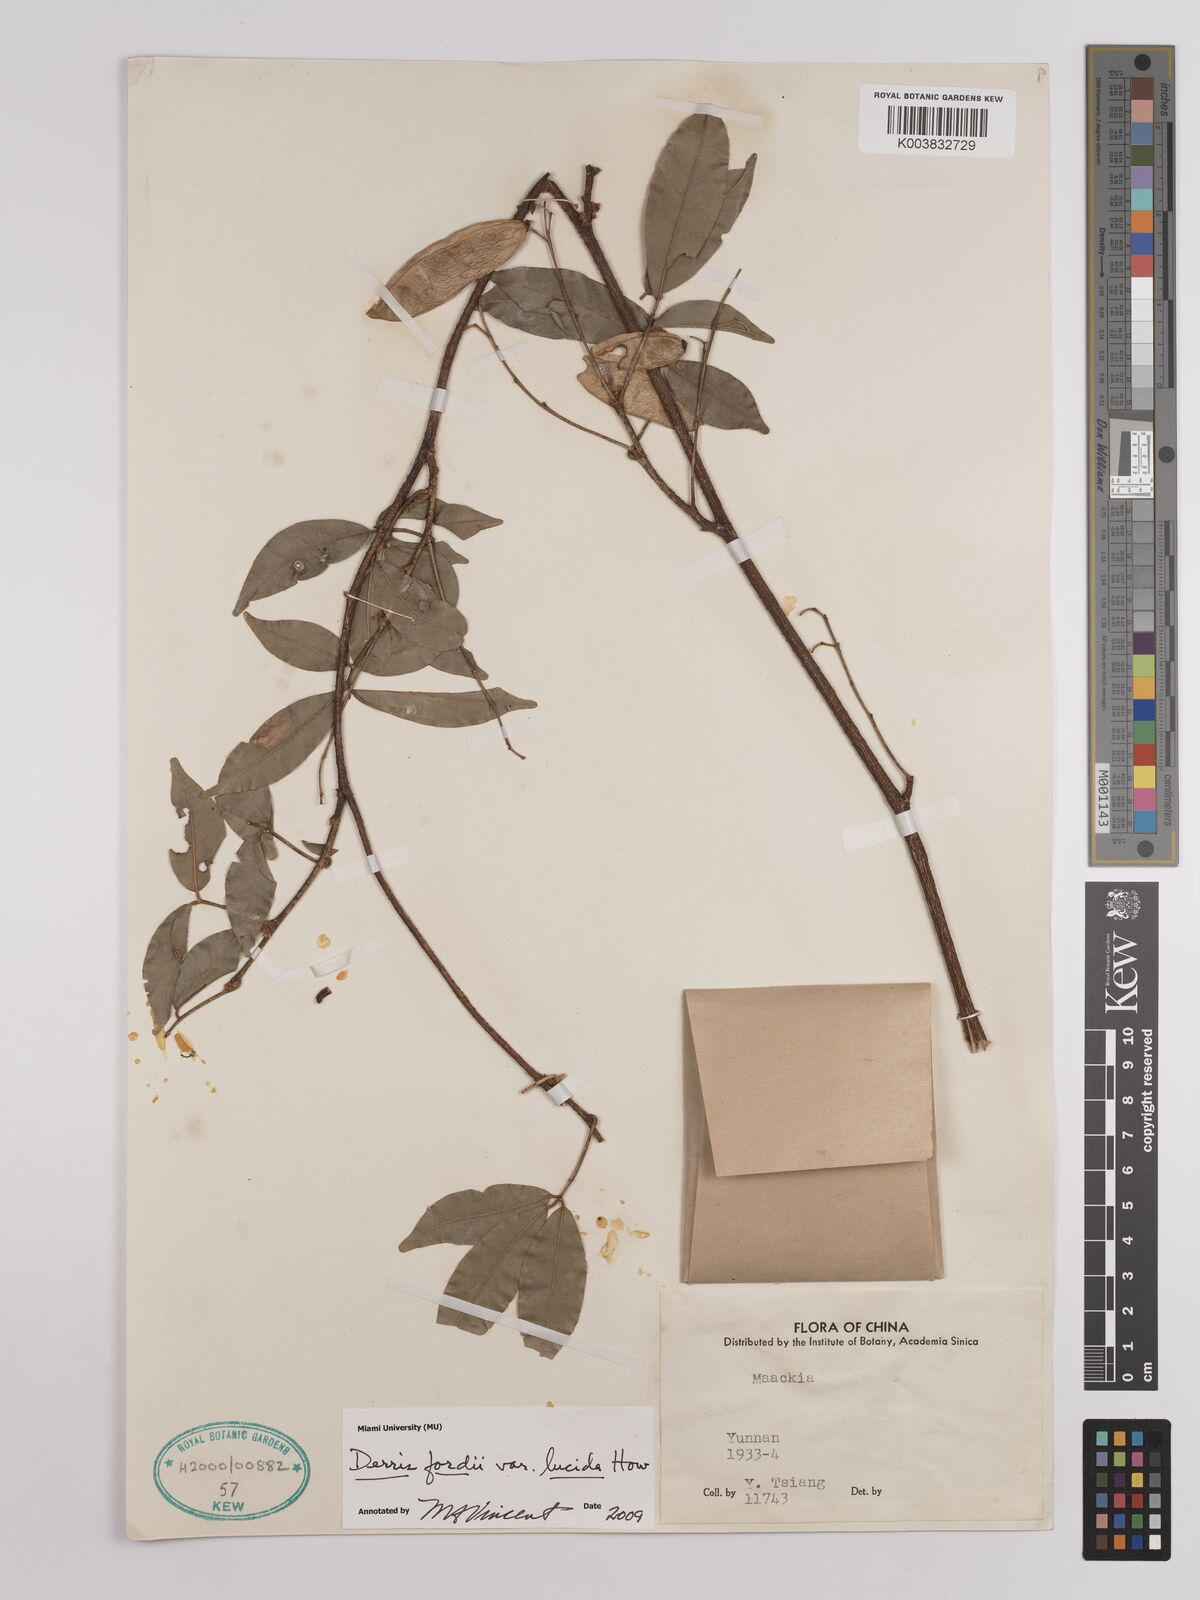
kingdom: Plantae
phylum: Tracheophyta
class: Magnoliopsida
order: Fabales
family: Fabaceae
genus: Derris
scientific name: Derris fordii
